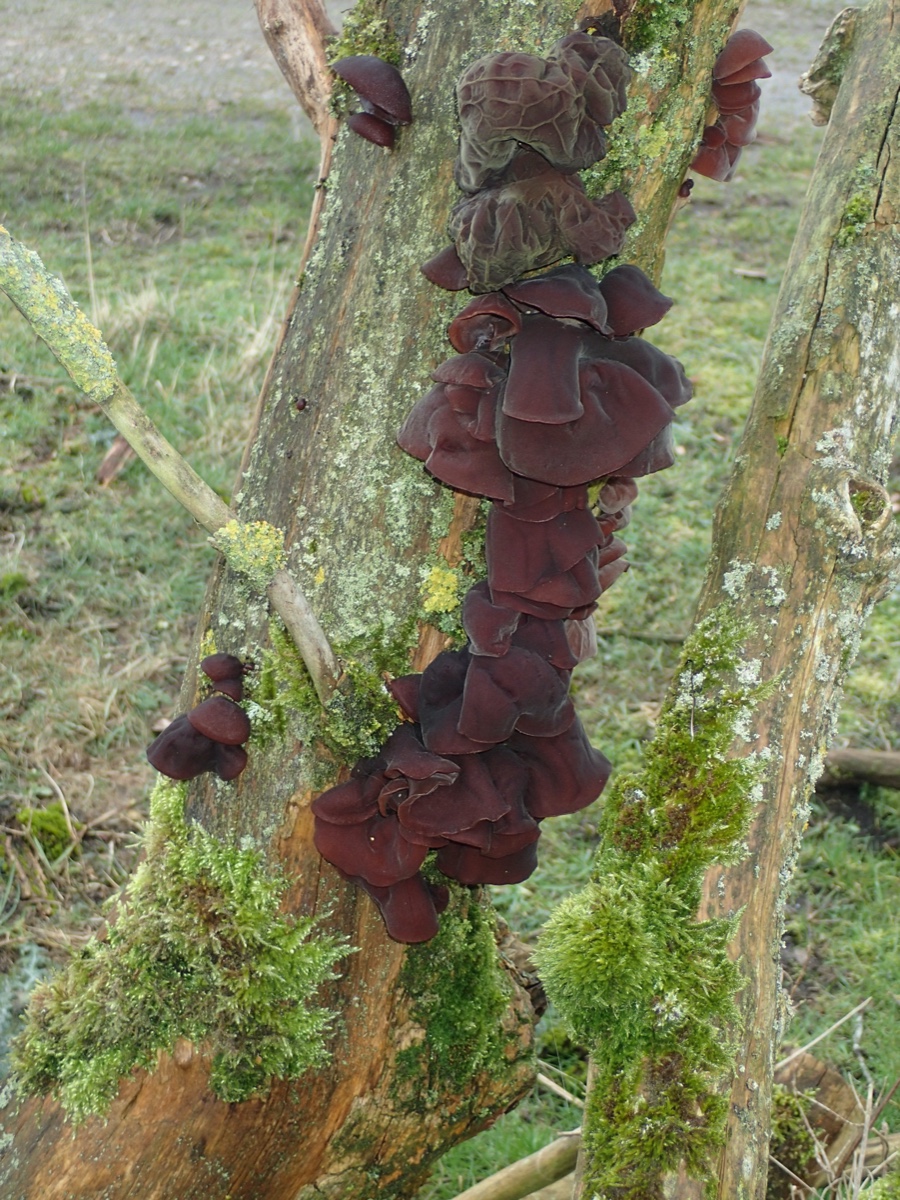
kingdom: Fungi
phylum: Basidiomycota
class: Agaricomycetes
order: Auriculariales
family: Auriculariaceae
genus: Auricularia
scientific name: Auricularia auricula-judae
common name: almindelig judasøre
